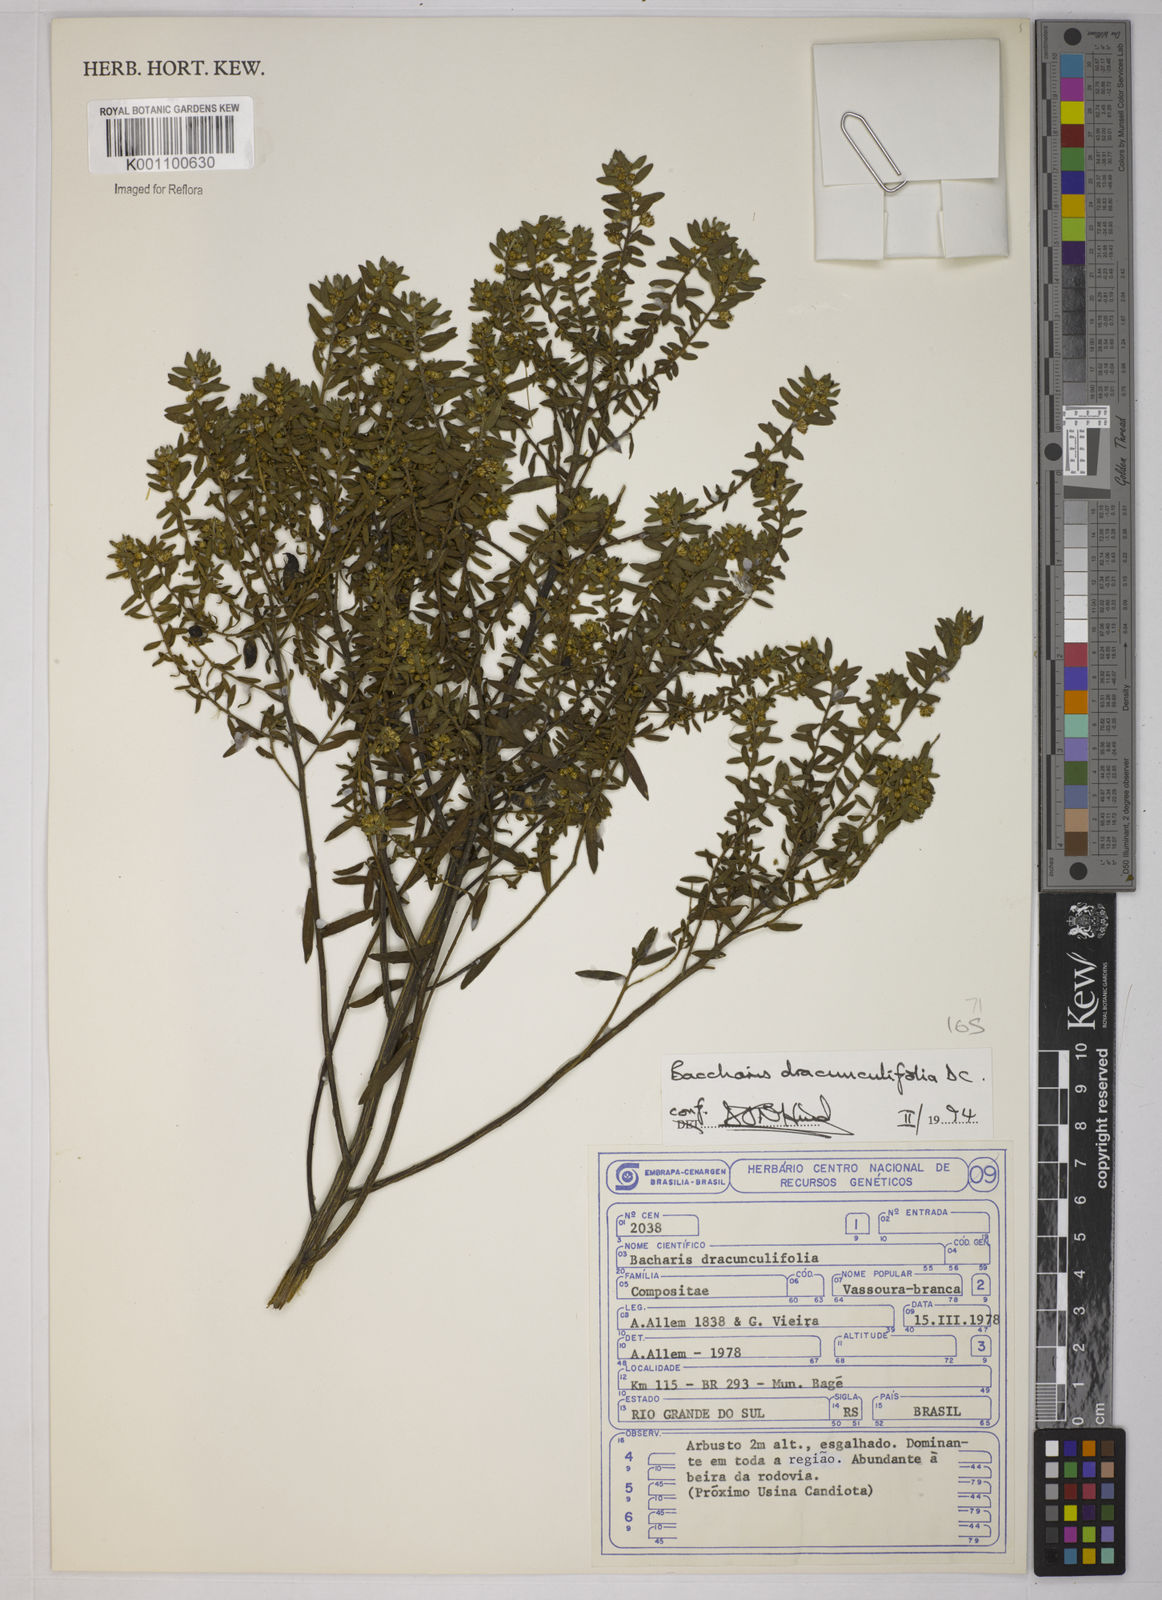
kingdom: Plantae
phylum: Tracheophyta
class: Magnoliopsida
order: Asterales
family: Asteraceae
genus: Baccharis
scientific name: Baccharis dracunculifolia
